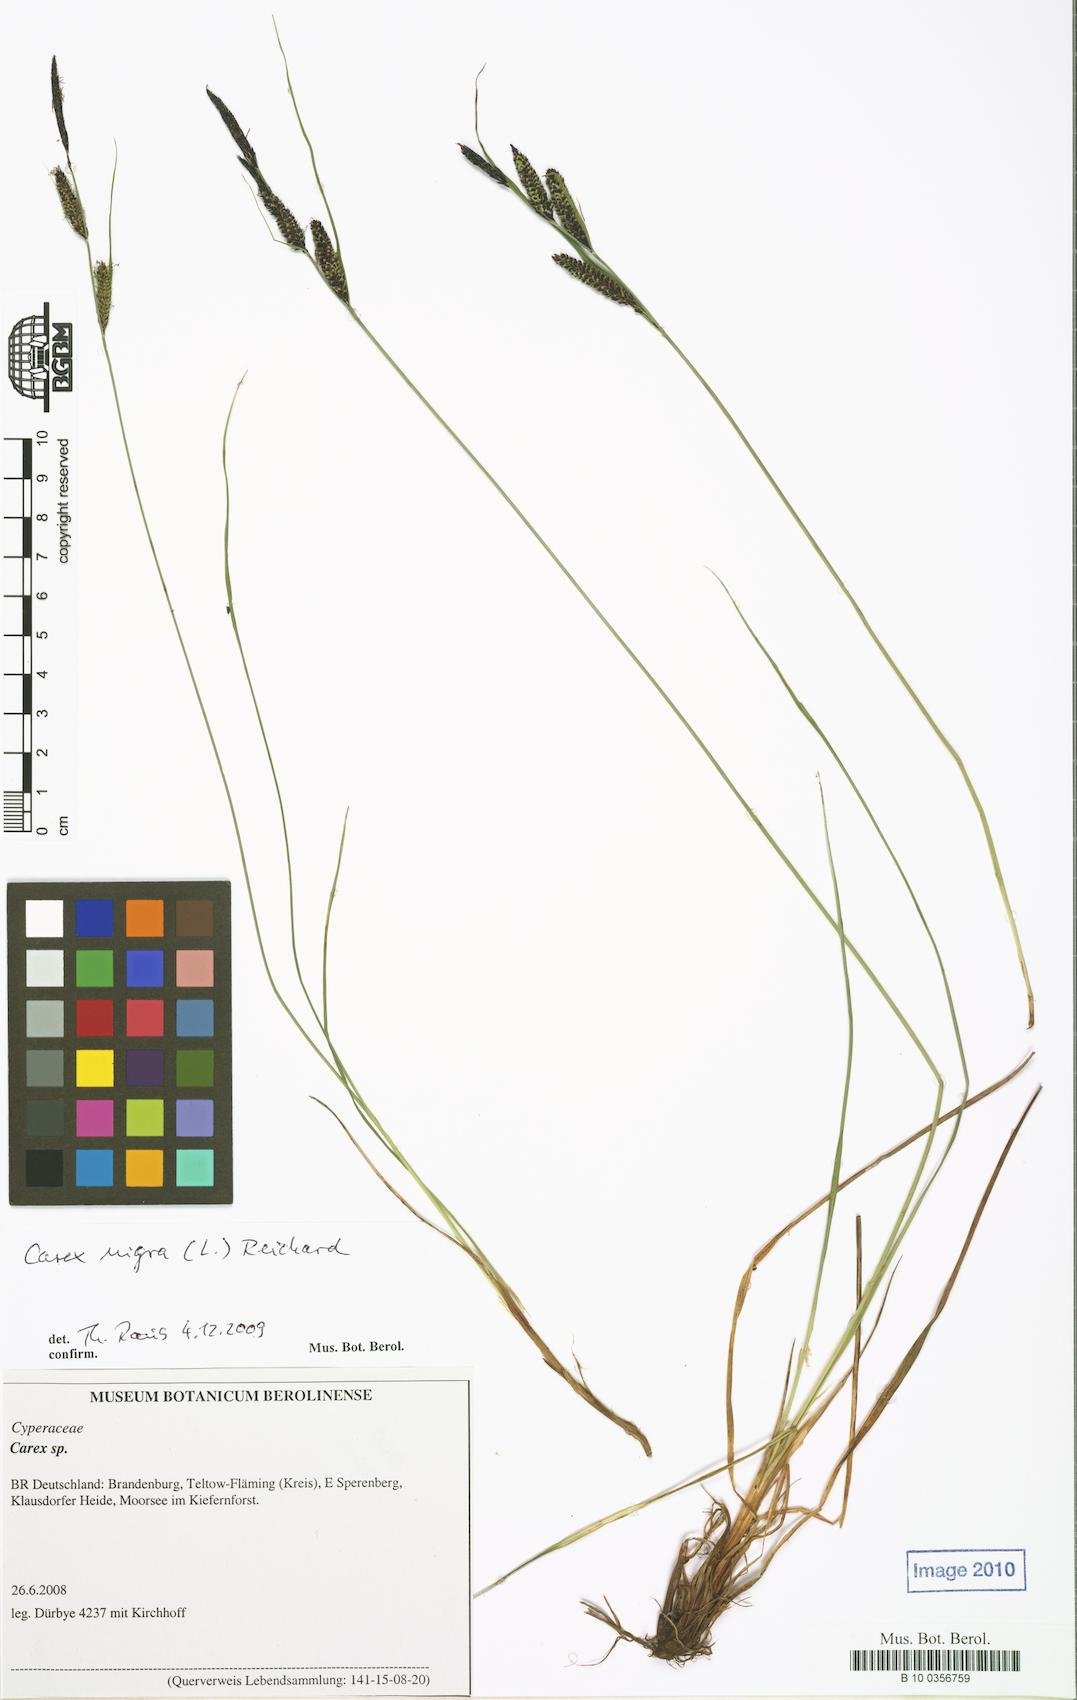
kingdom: Plantae
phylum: Tracheophyta
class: Liliopsida
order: Poales
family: Cyperaceae
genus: Carex
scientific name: Carex nigra
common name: Common sedge
